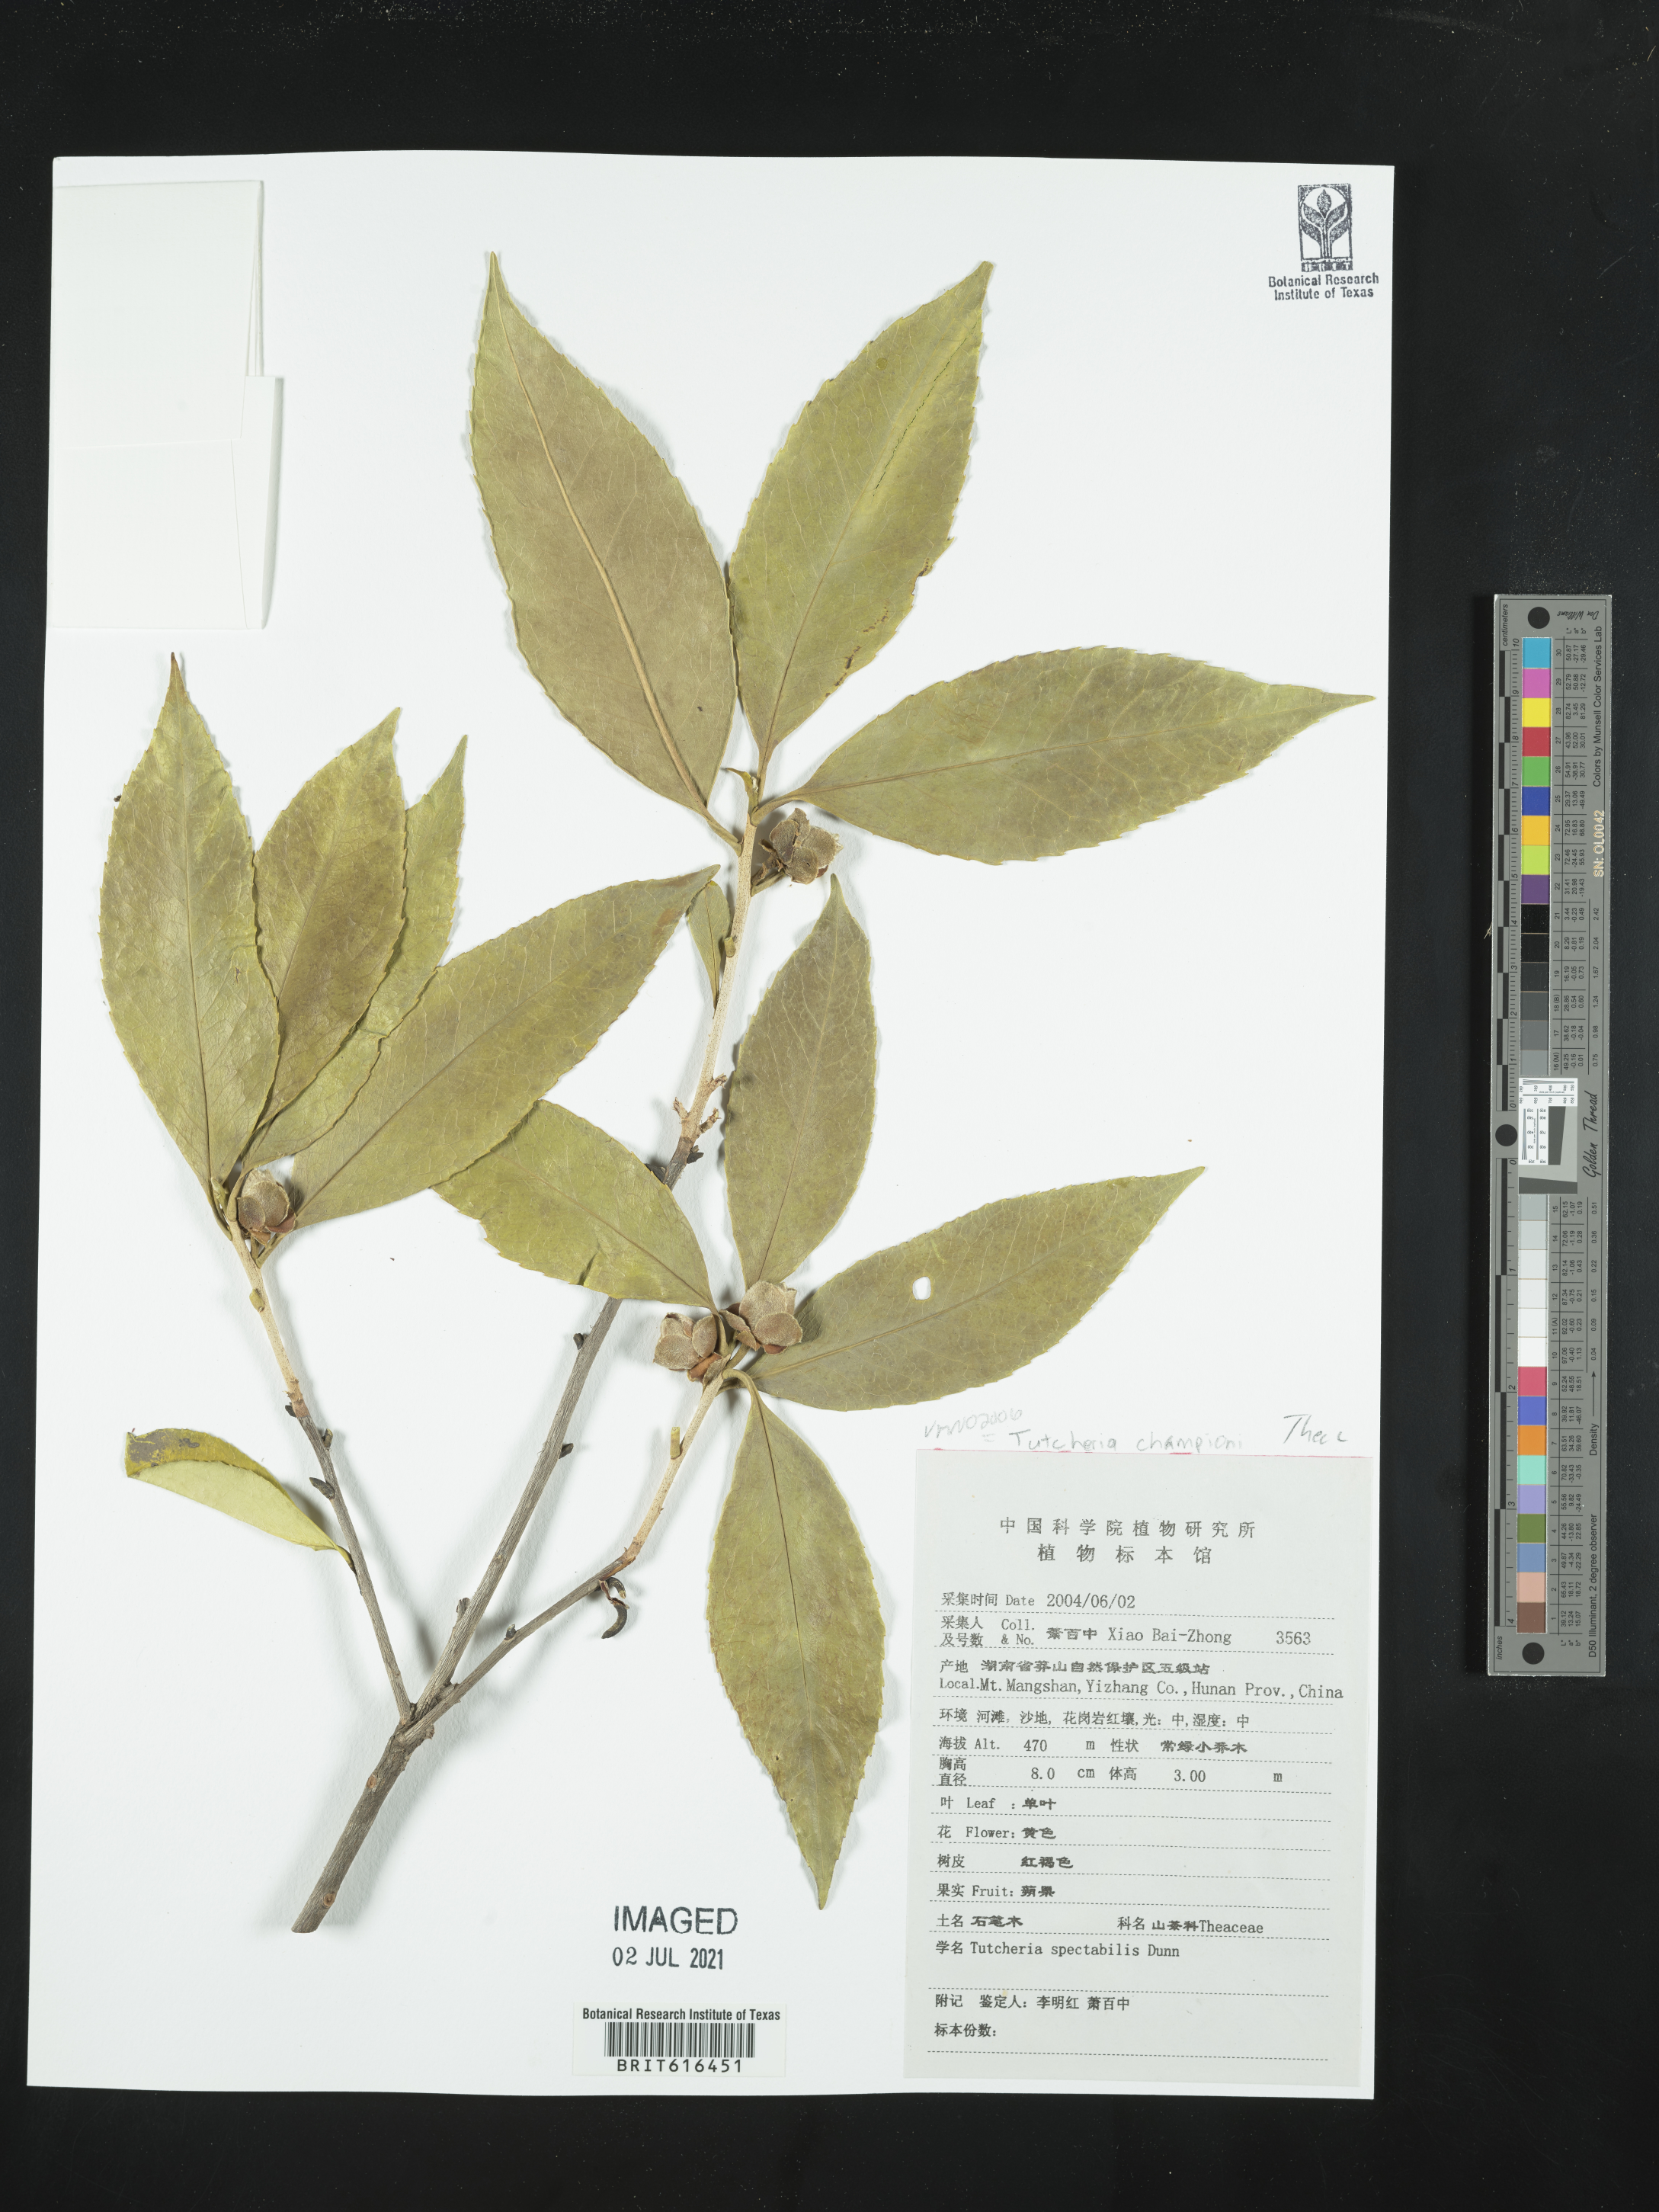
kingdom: Plantae
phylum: Tracheophyta
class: Magnoliopsida
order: Ericales
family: Theaceae
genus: Pyrenaria
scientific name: Pyrenaria spectabilis
